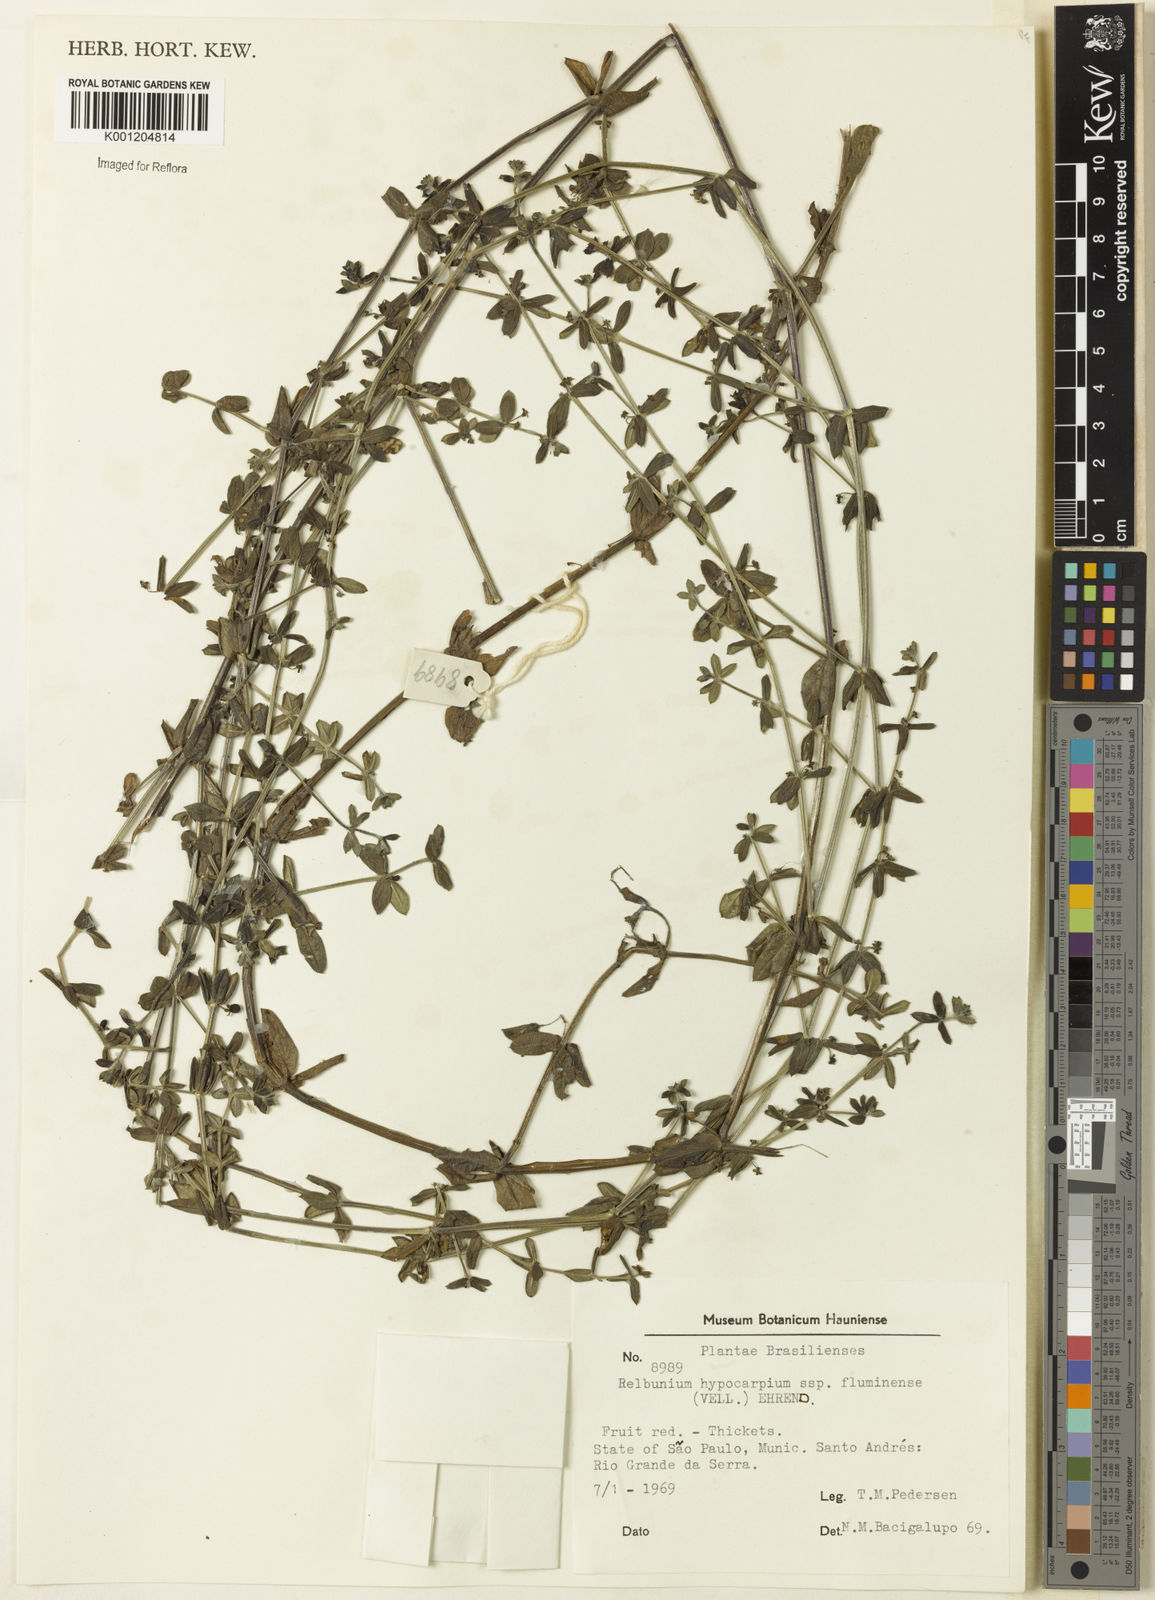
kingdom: Plantae
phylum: Tracheophyta
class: Magnoliopsida
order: Gentianales
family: Rubiaceae
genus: Galium
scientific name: Galium hypocarpium
